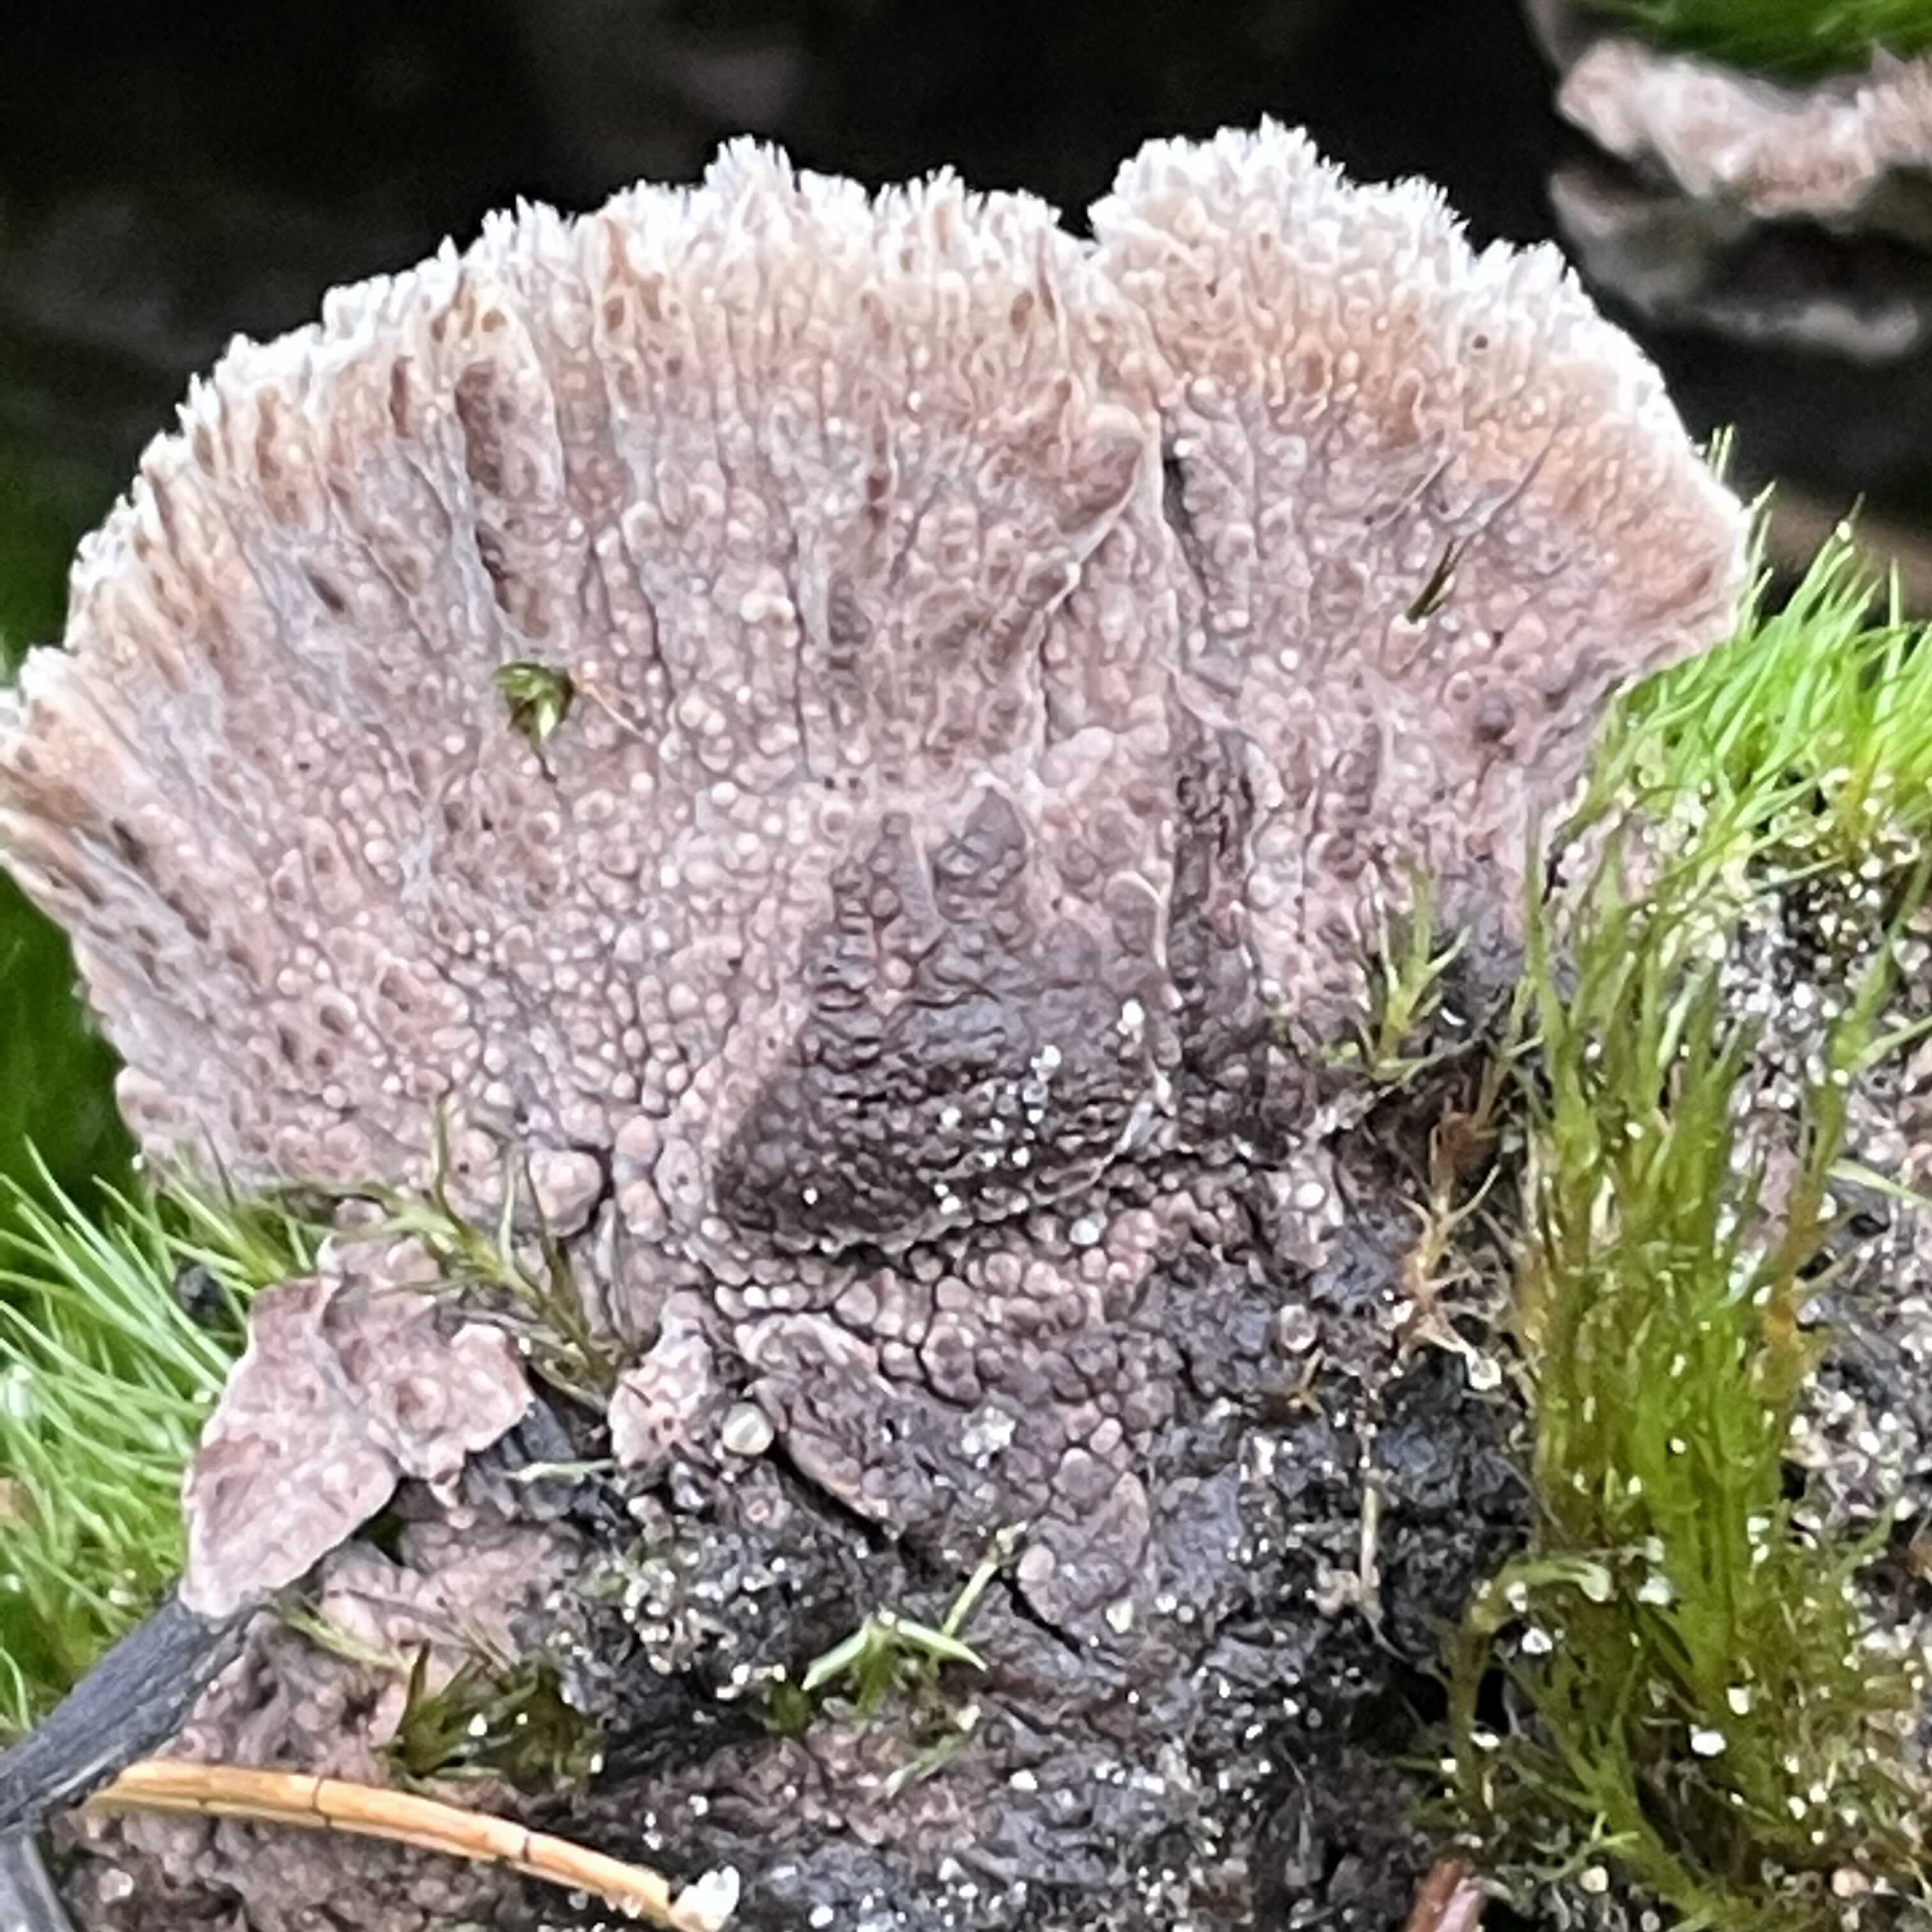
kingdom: Fungi
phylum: Basidiomycota
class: Agaricomycetes
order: Thelephorales
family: Thelephoraceae
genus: Thelephora
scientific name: Thelephora terrestris
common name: fliget frynsesvamp
